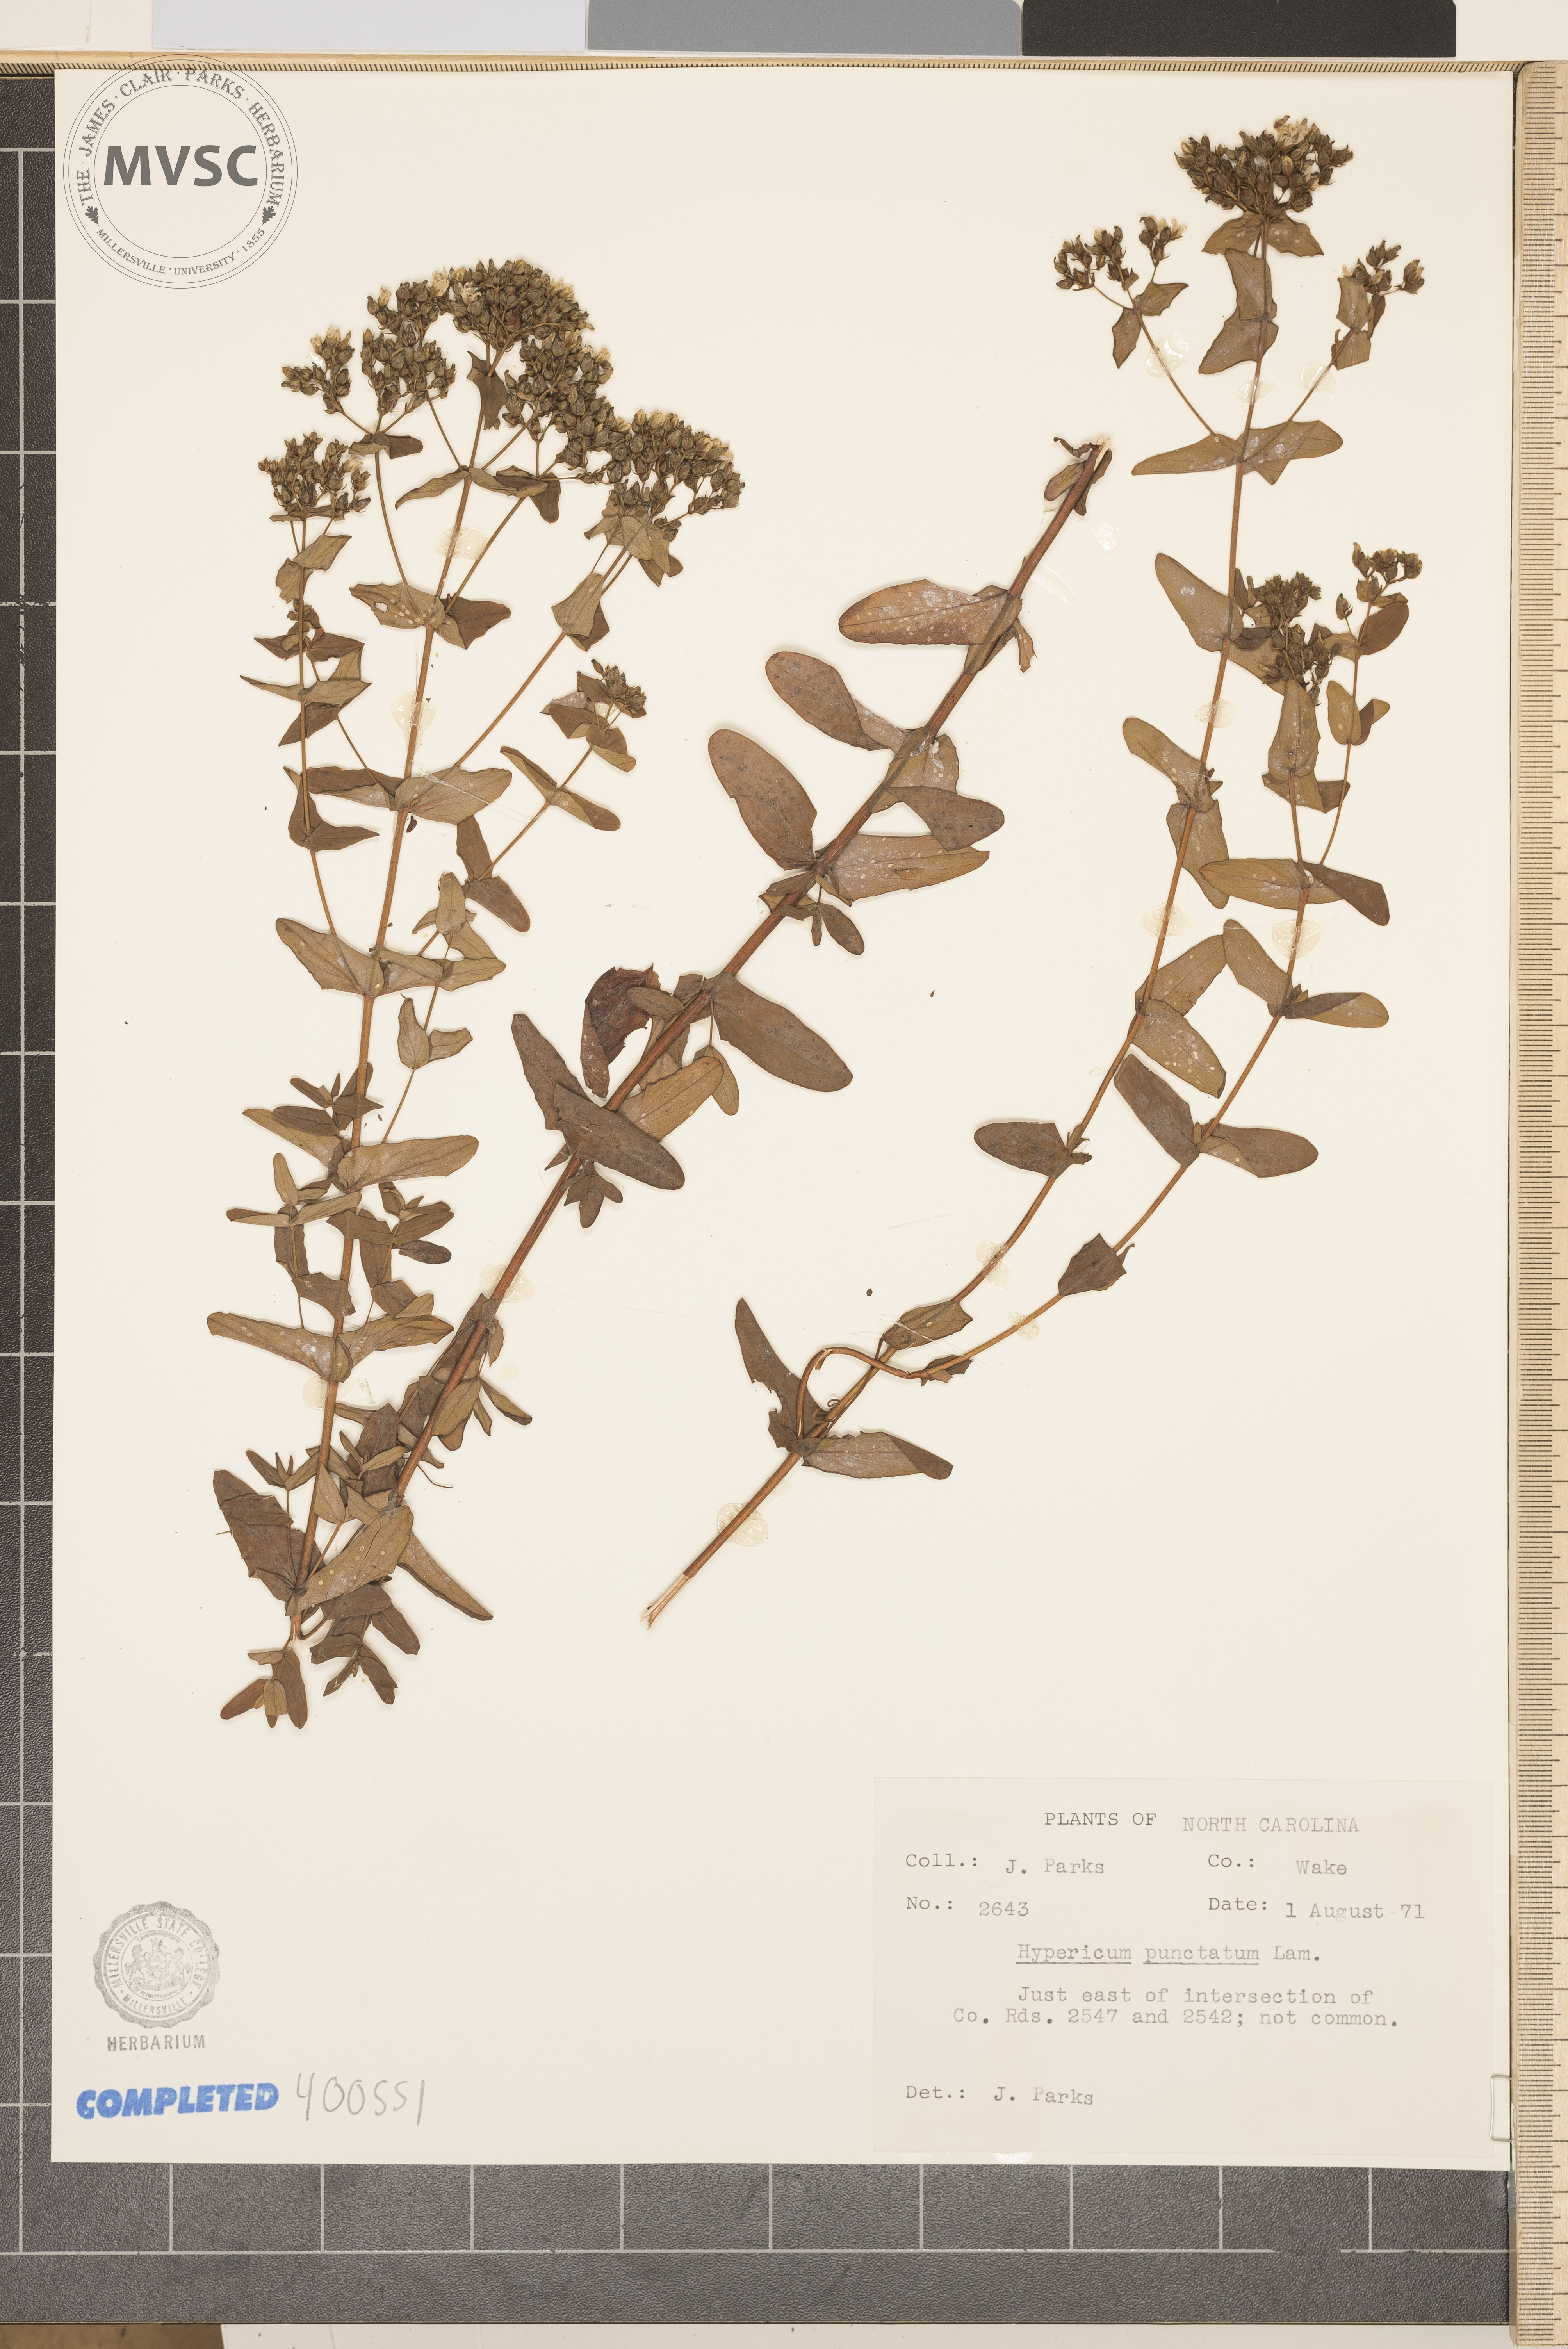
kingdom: Plantae
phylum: Tracheophyta
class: Magnoliopsida
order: Malpighiales
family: Hypericaceae
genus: Hypericum
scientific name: Hypericum punctatum
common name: Spotted St. John's-wort
